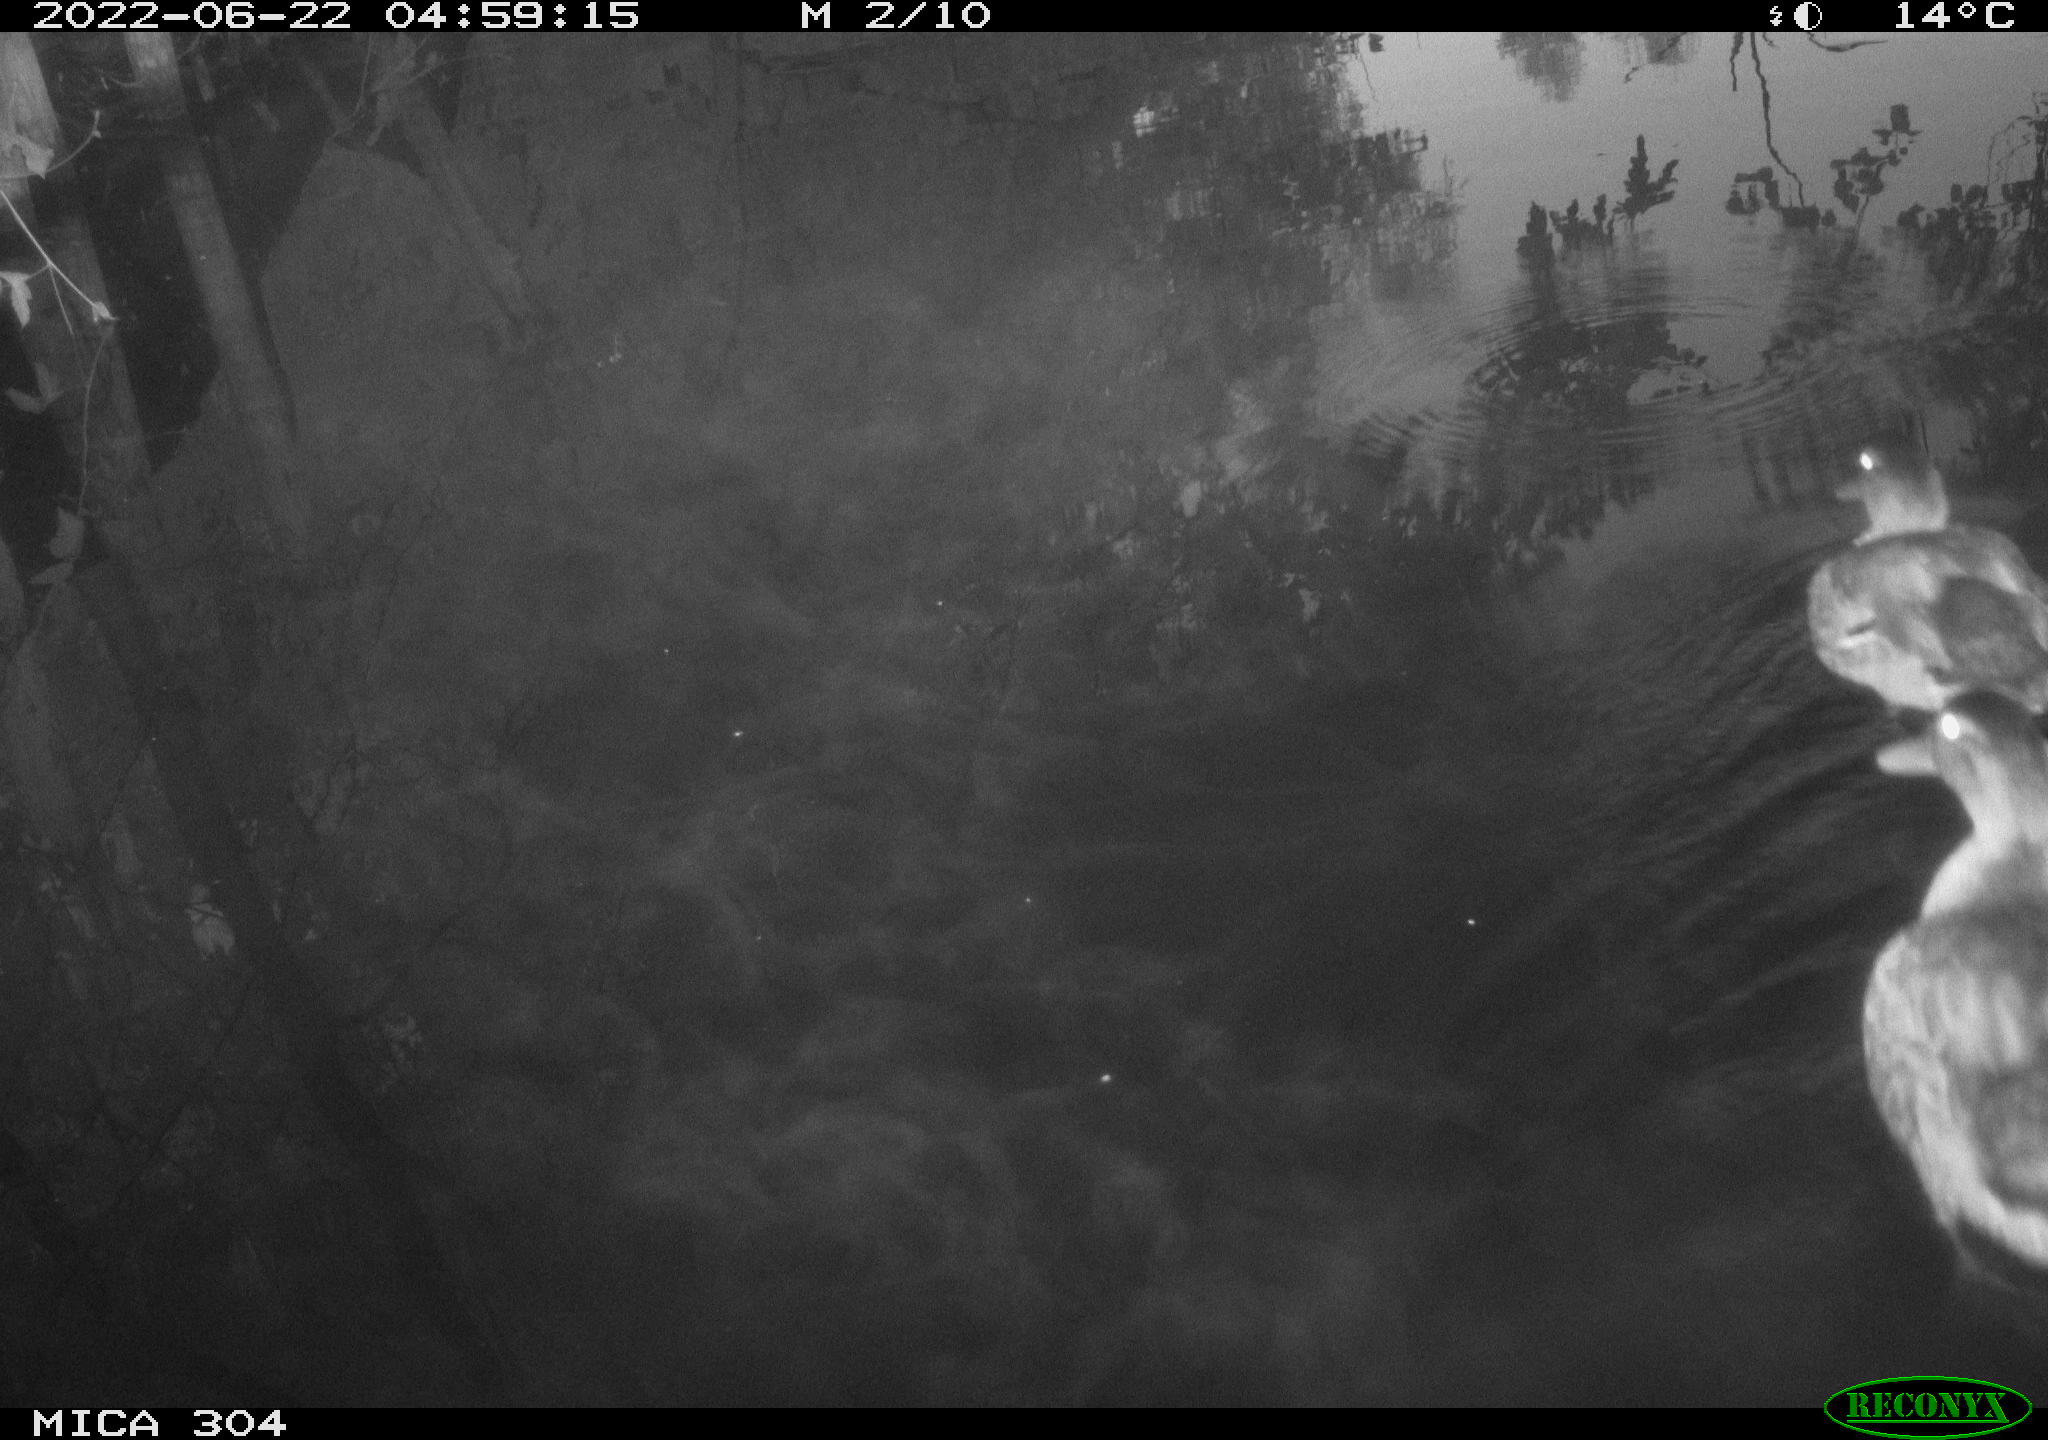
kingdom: Animalia
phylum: Chordata
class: Aves
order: Anseriformes
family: Anatidae
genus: Anas
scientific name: Anas platyrhynchos
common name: Mallard
